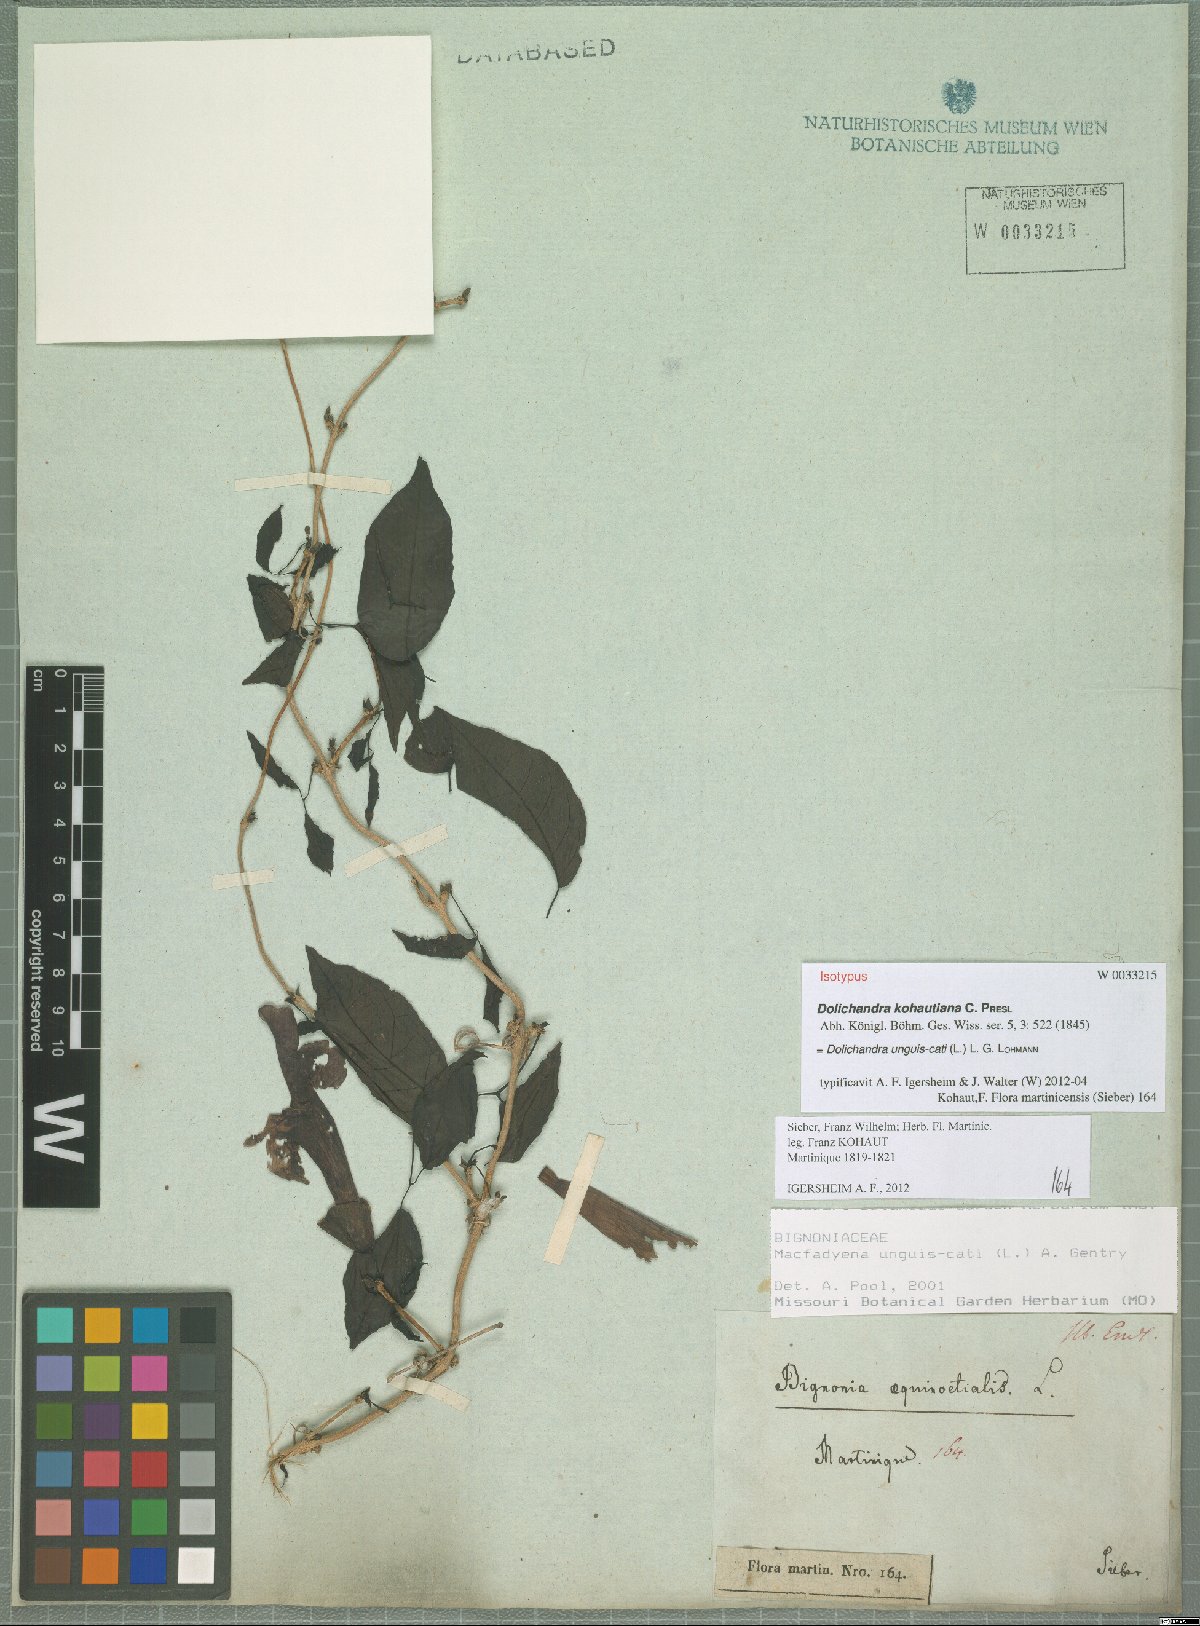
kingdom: Plantae
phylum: Tracheophyta
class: Magnoliopsida
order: Lamiales
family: Bignoniaceae
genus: Dolichandra
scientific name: Dolichandra unguis-cati
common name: Catclaw vine
